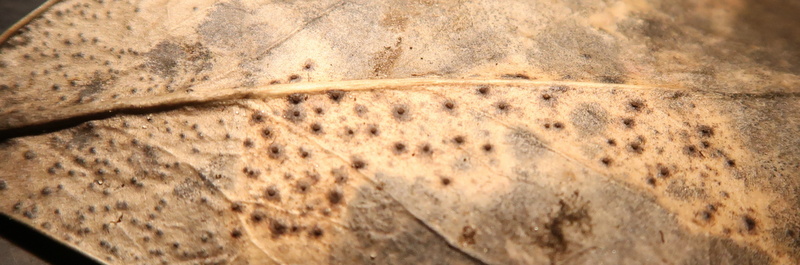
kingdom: Fungi
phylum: Ascomycota
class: Leotiomycetes
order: Helotiales
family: Cenangiaceae
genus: Trochila
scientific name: Trochila ilicina
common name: kristtorn-lågskive
